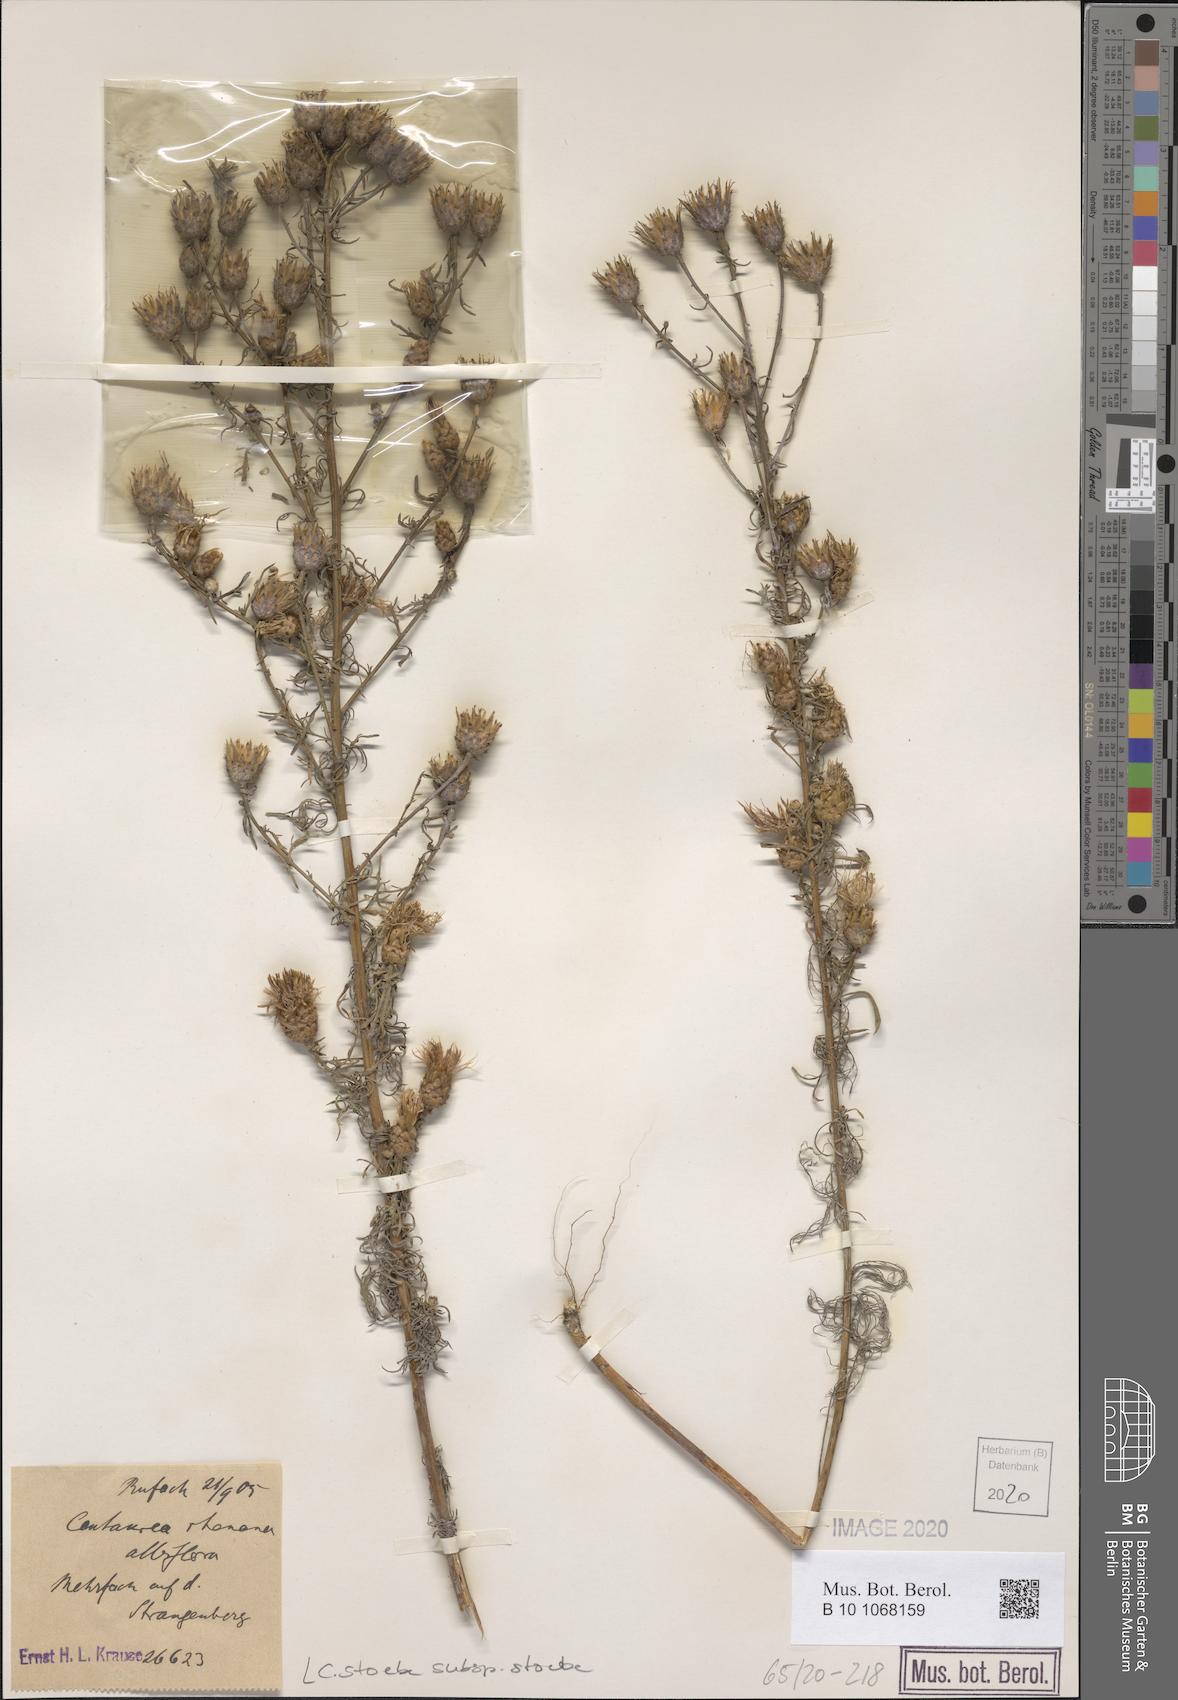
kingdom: Plantae
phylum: Tracheophyta
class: Magnoliopsida
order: Asterales
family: Asteraceae
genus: Centaurea
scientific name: Centaurea stoebe
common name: Spotted knapweed
